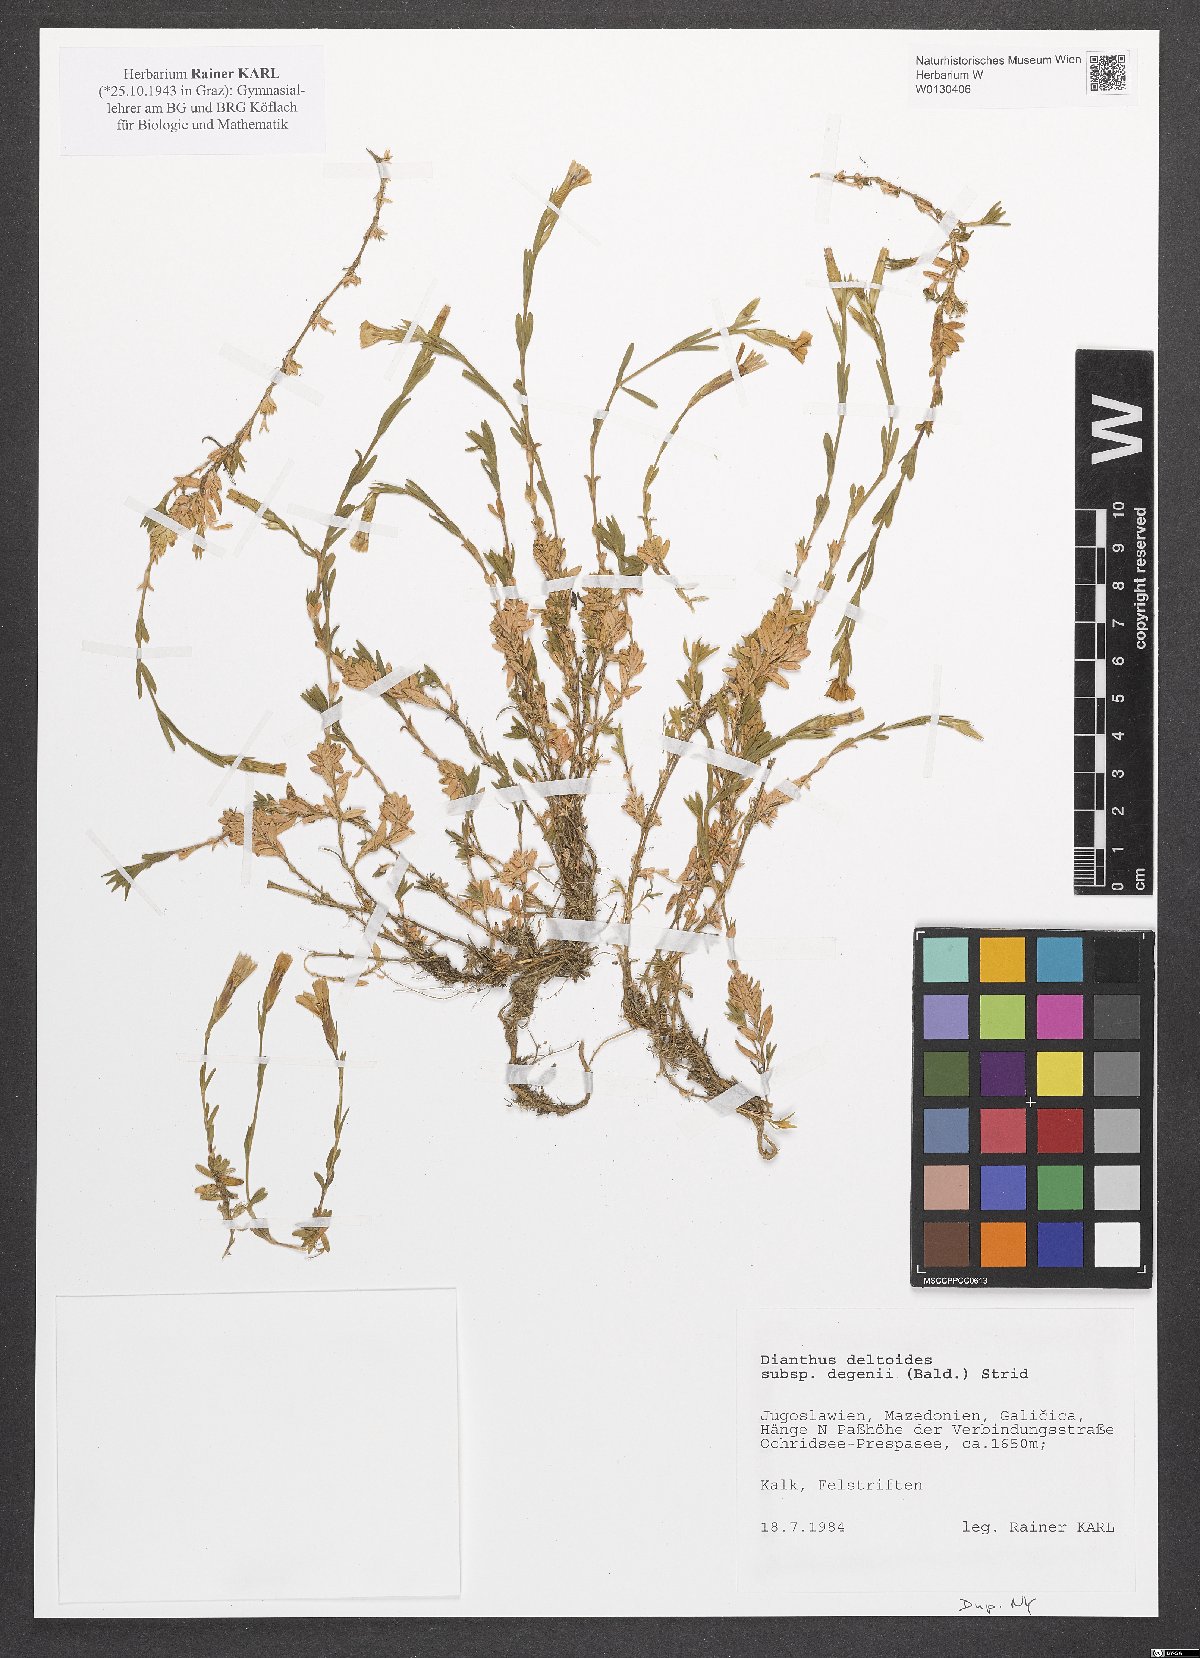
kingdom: Plantae
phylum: Tracheophyta
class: Magnoliopsida
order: Caryophyllales
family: Caryophyllaceae
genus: Dianthus
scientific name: Dianthus deltoides
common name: Maiden pink
